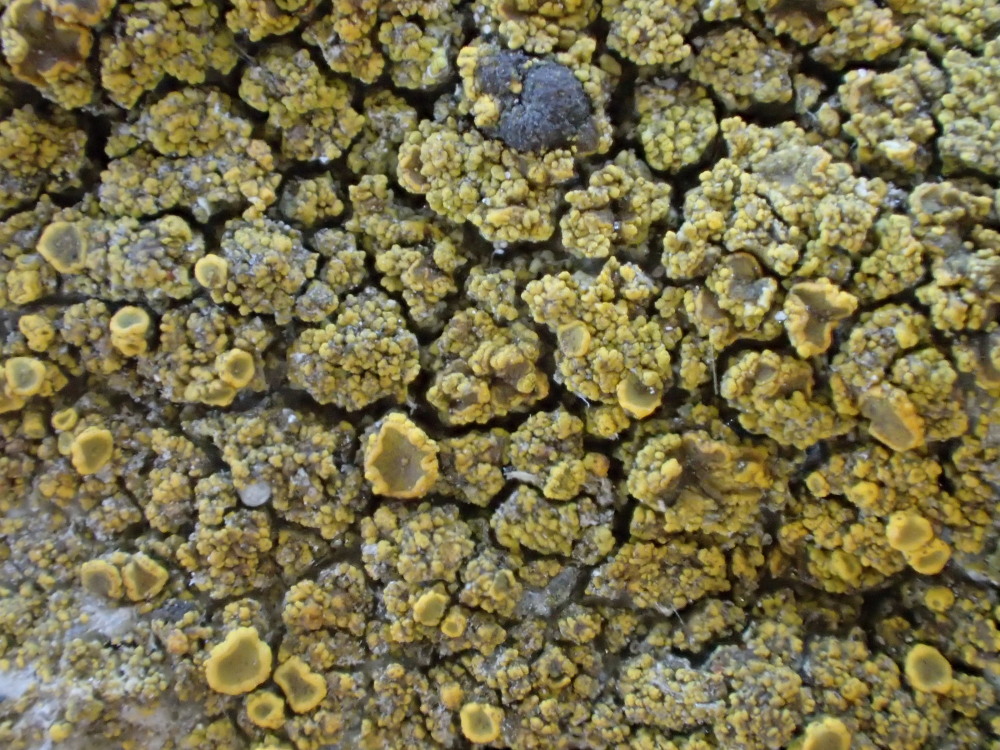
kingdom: Fungi
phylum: Ascomycota
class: Candelariomycetes
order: Candelariales
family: Candelariaceae
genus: Candelariella
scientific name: Candelariella vitellina
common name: almindelig æggeblommelav
